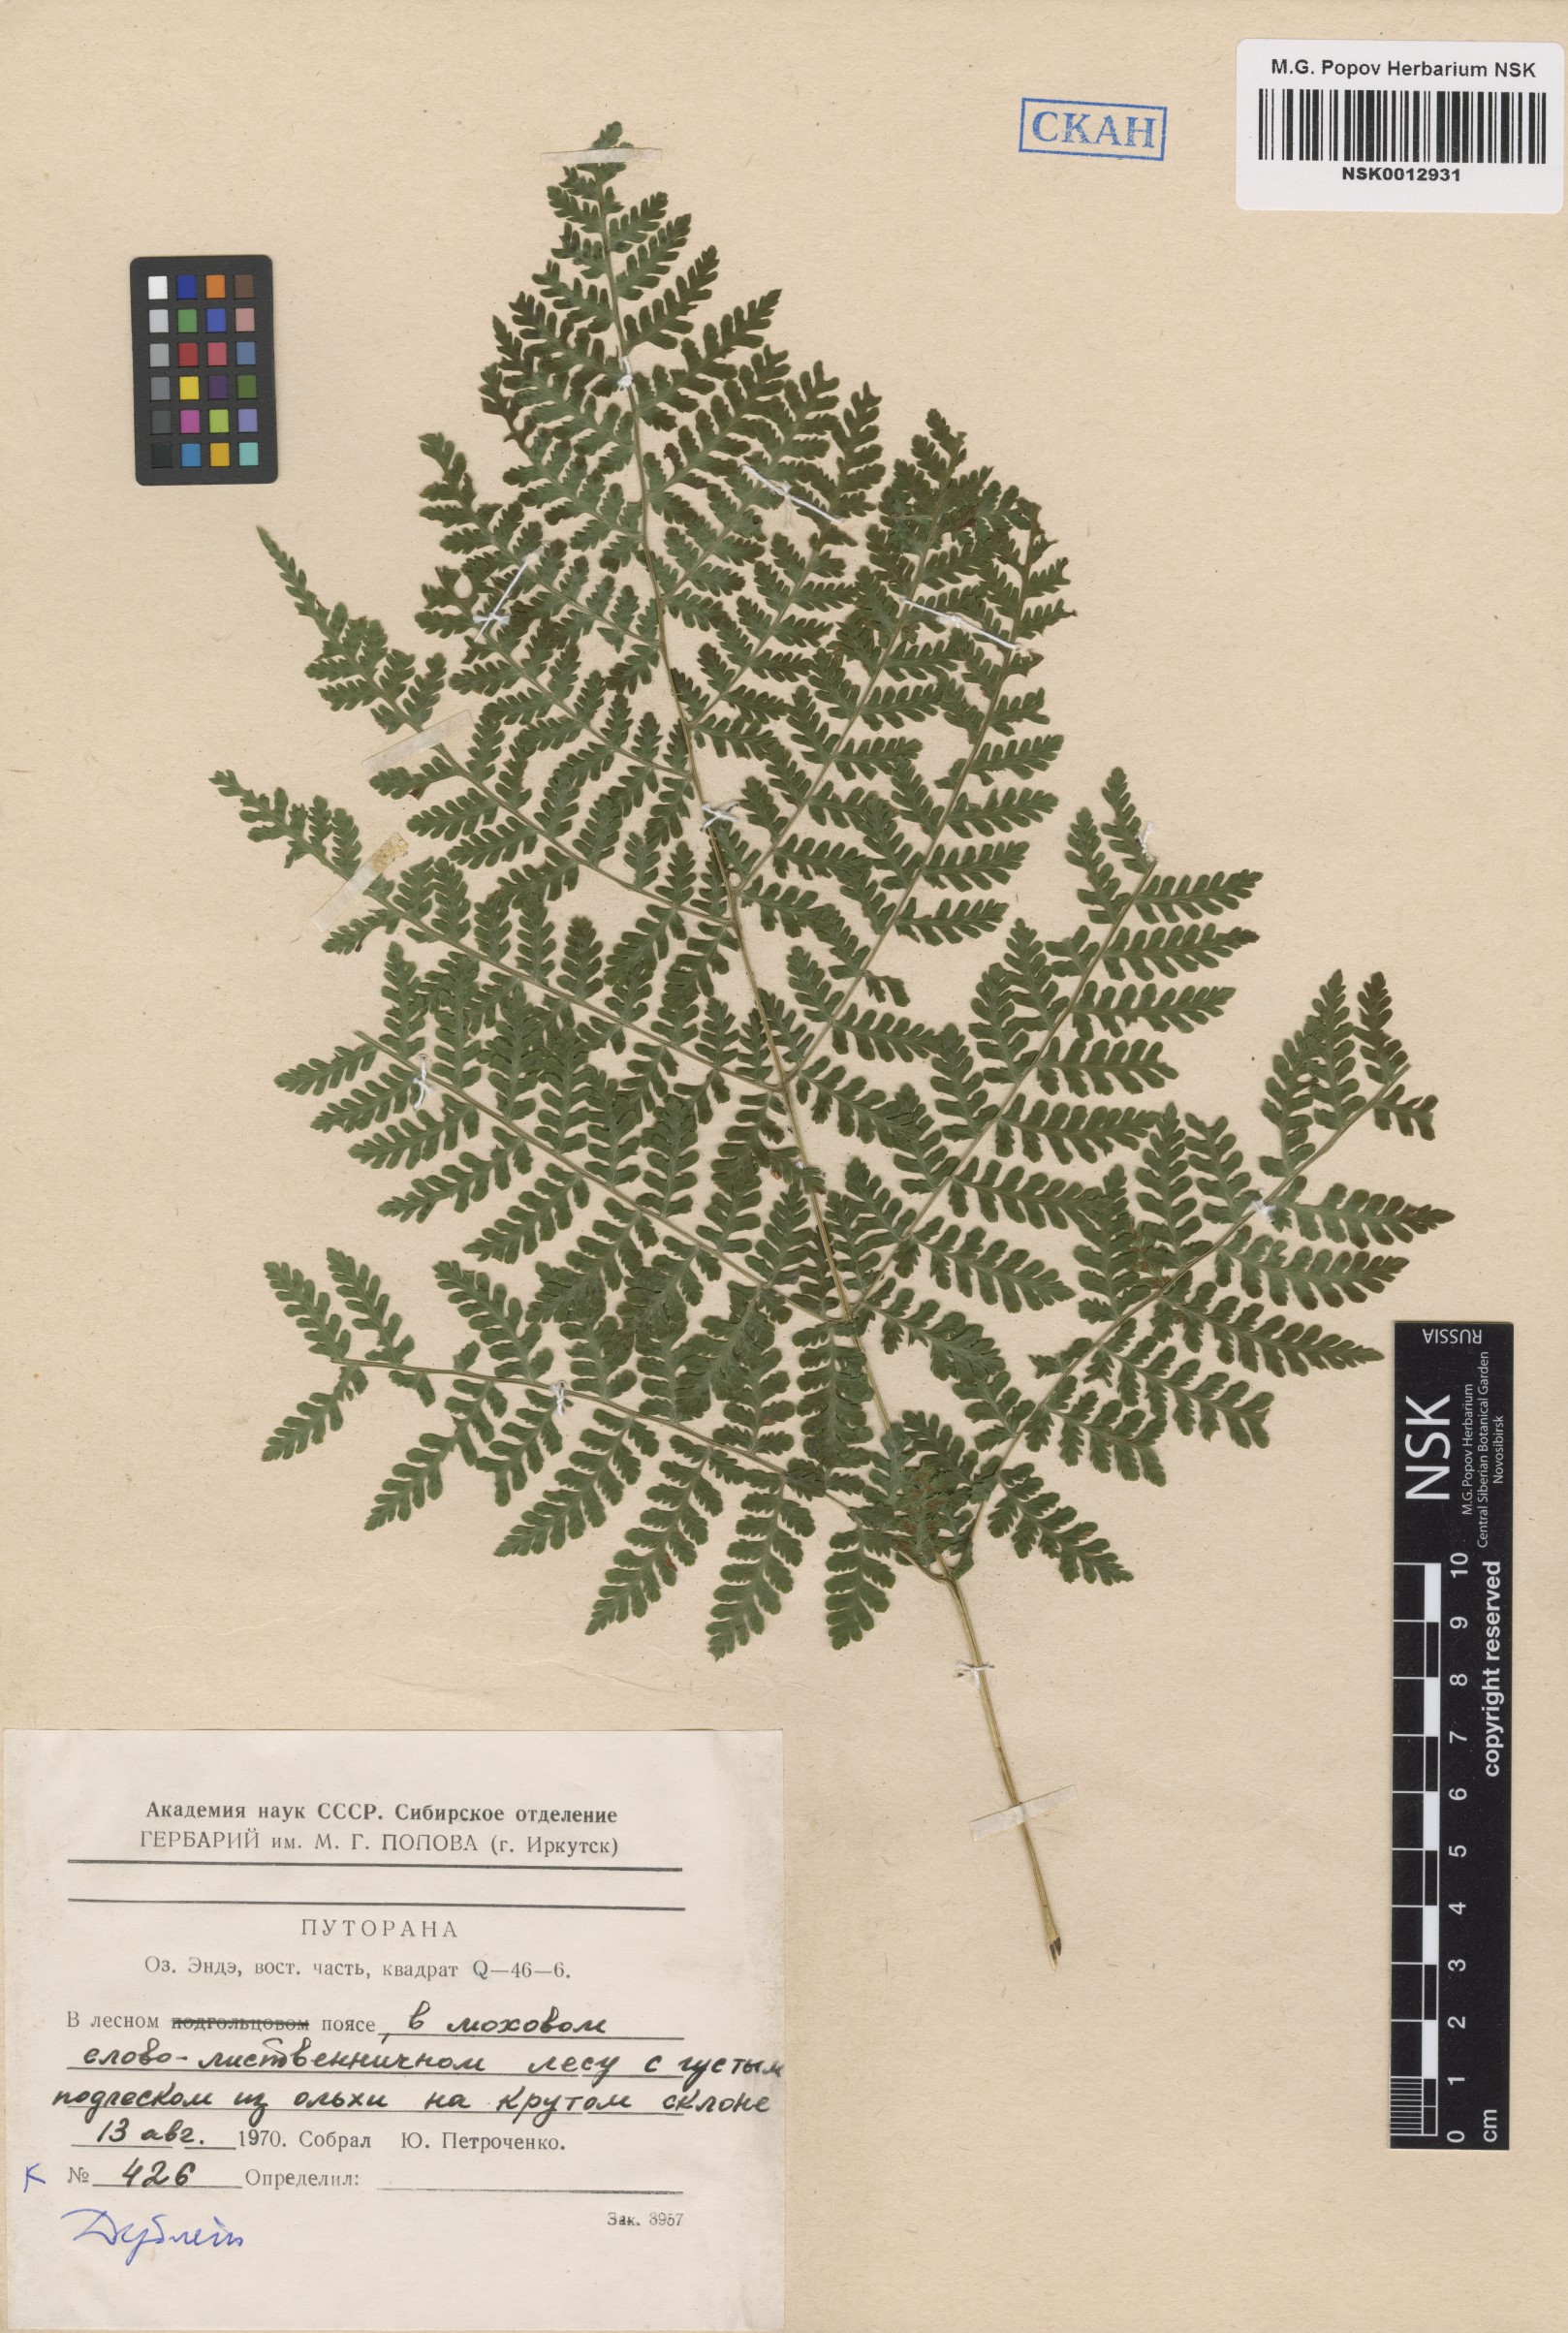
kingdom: Plantae
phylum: Tracheophyta
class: Polypodiopsida
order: Polypodiales
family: Athyriaceae
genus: Diplazium
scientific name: Diplazium sibiricum
